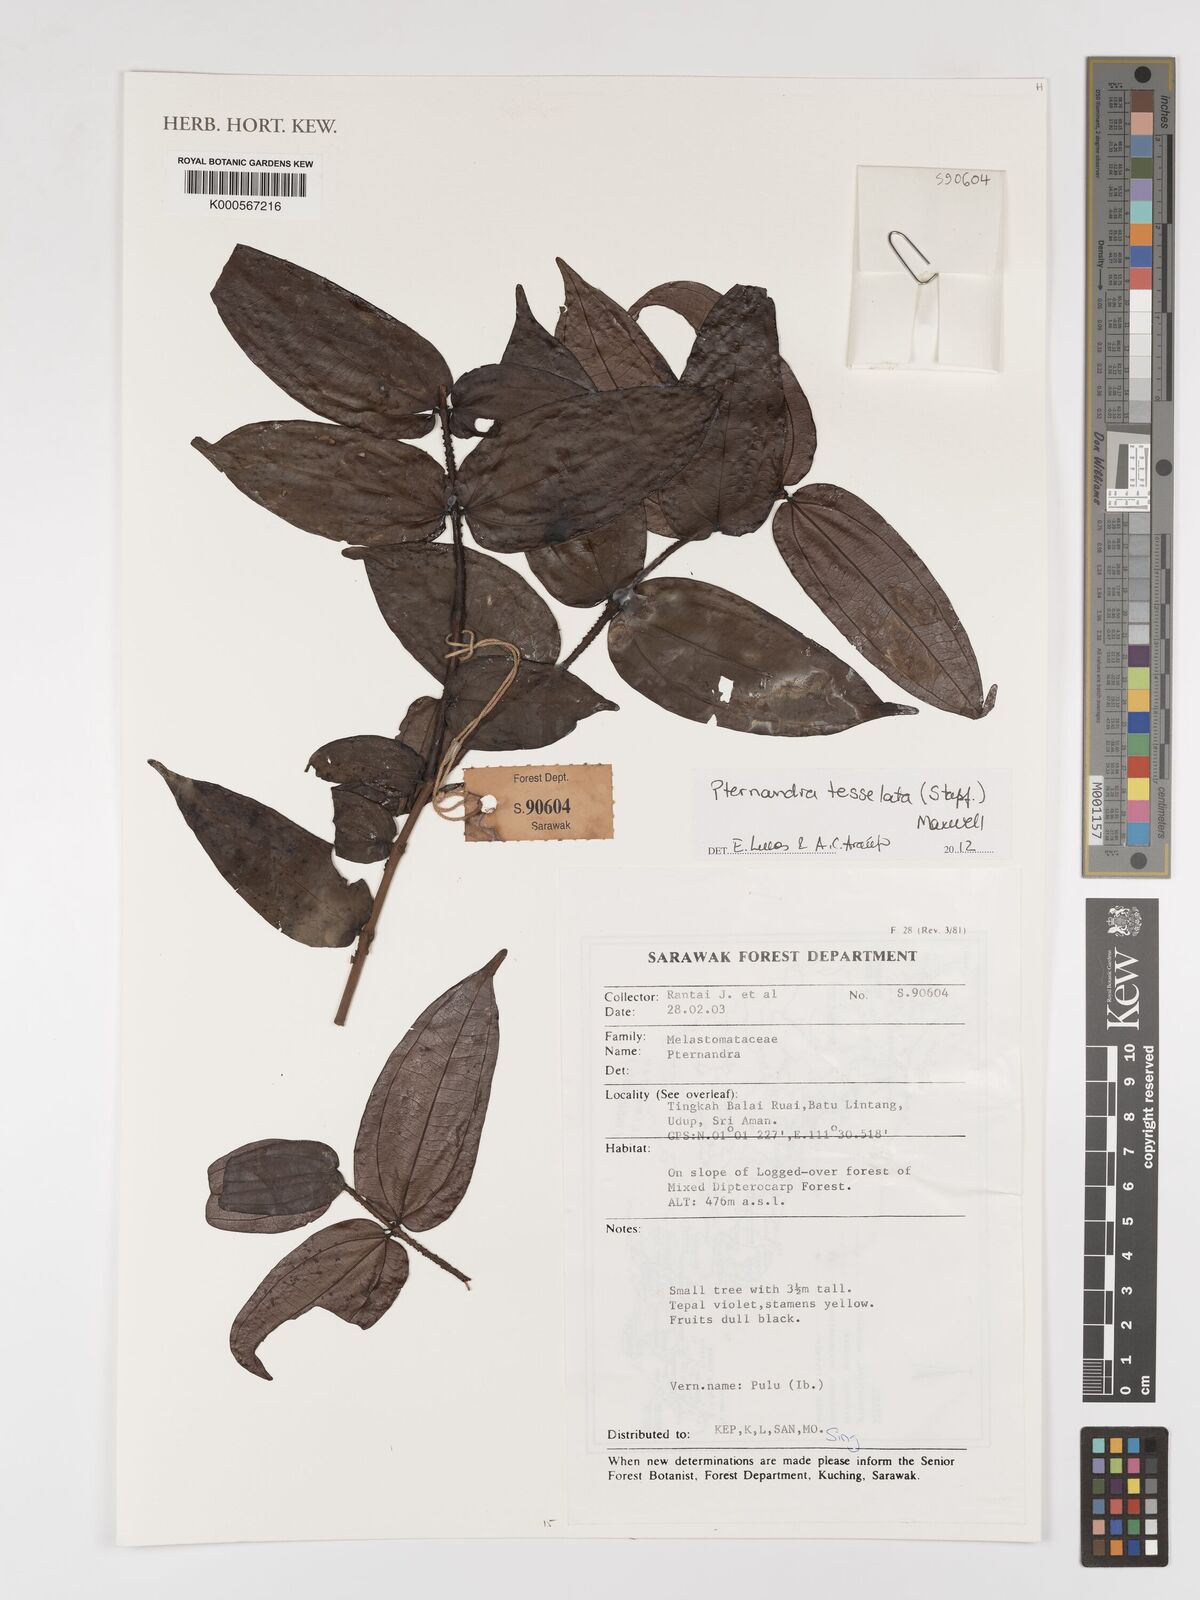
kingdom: Plantae
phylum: Tracheophyta
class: Magnoliopsida
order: Myrtales
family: Melastomataceae
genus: Pternandra
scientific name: Pternandra
